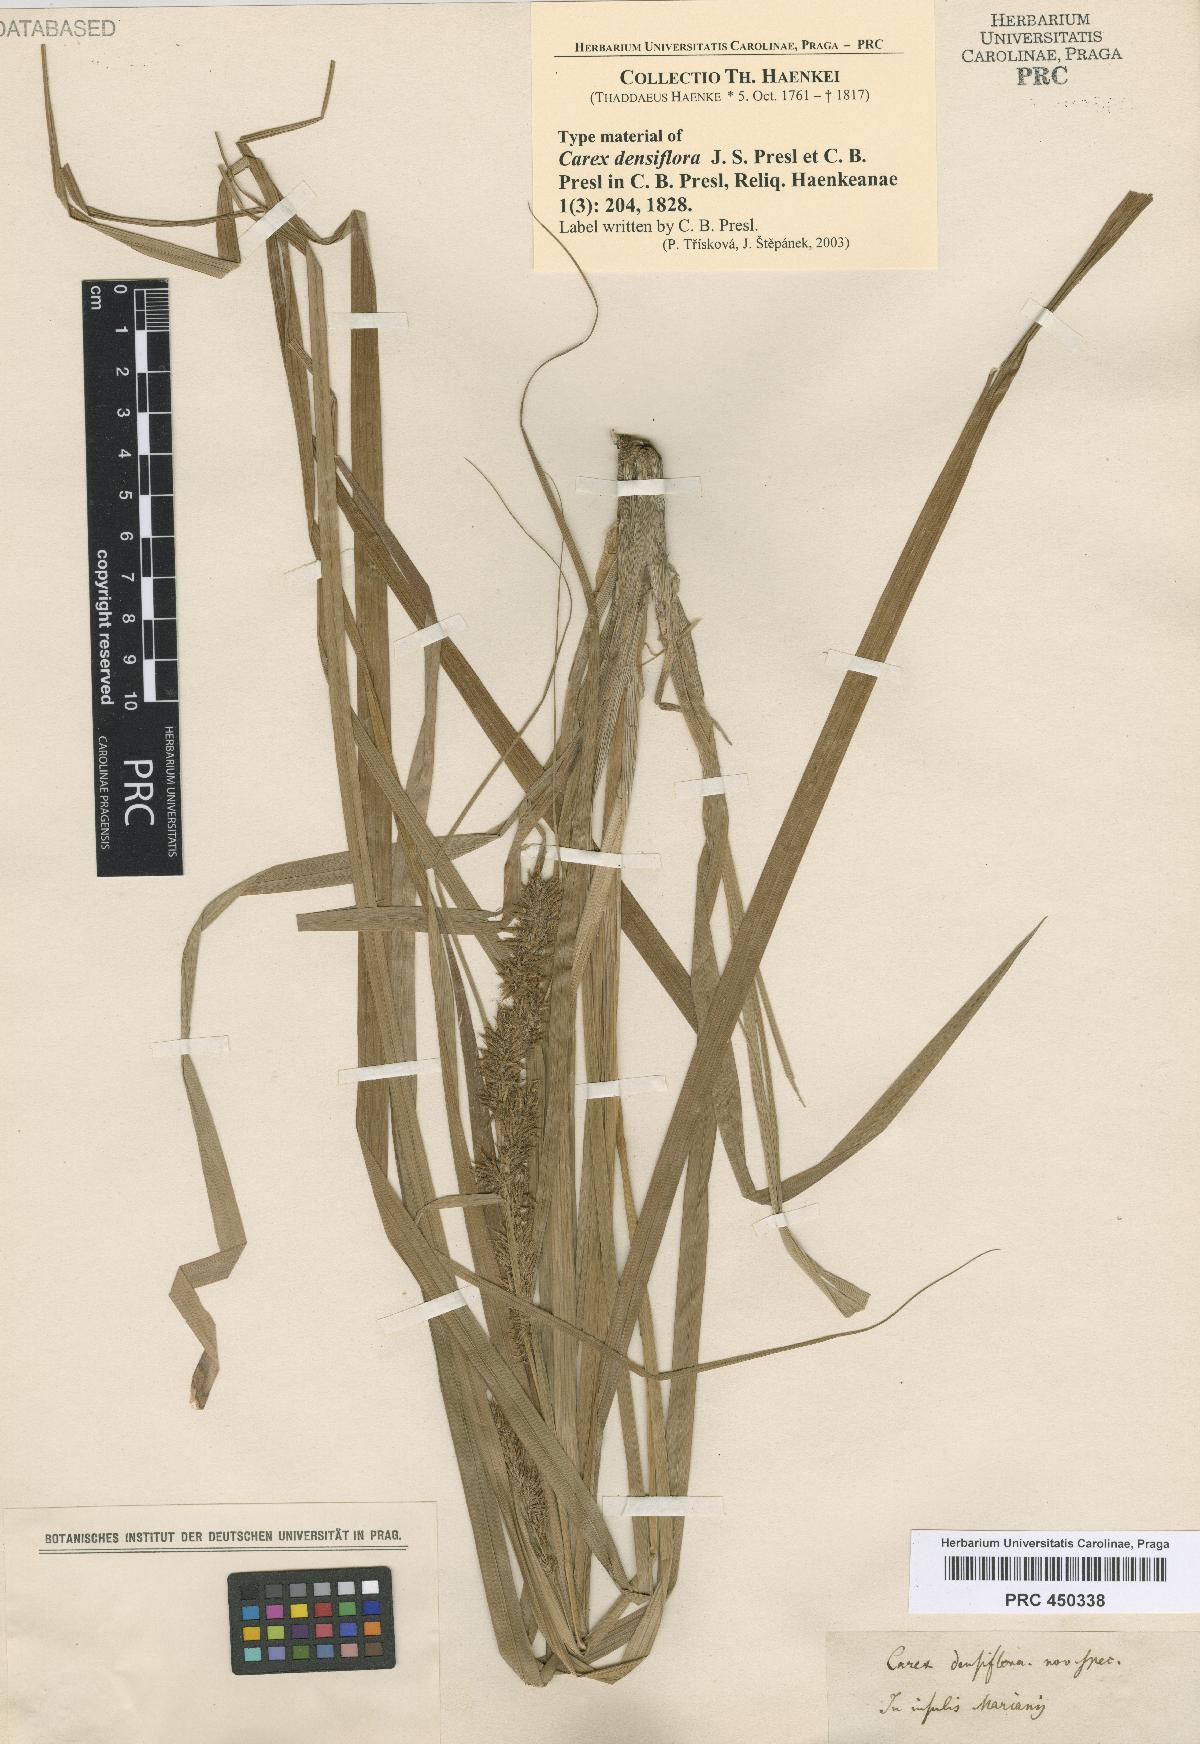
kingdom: Plantae
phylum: Tracheophyta
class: Liliopsida
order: Poales
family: Cyperaceae
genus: Carex
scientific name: Carex cirrhulosa
